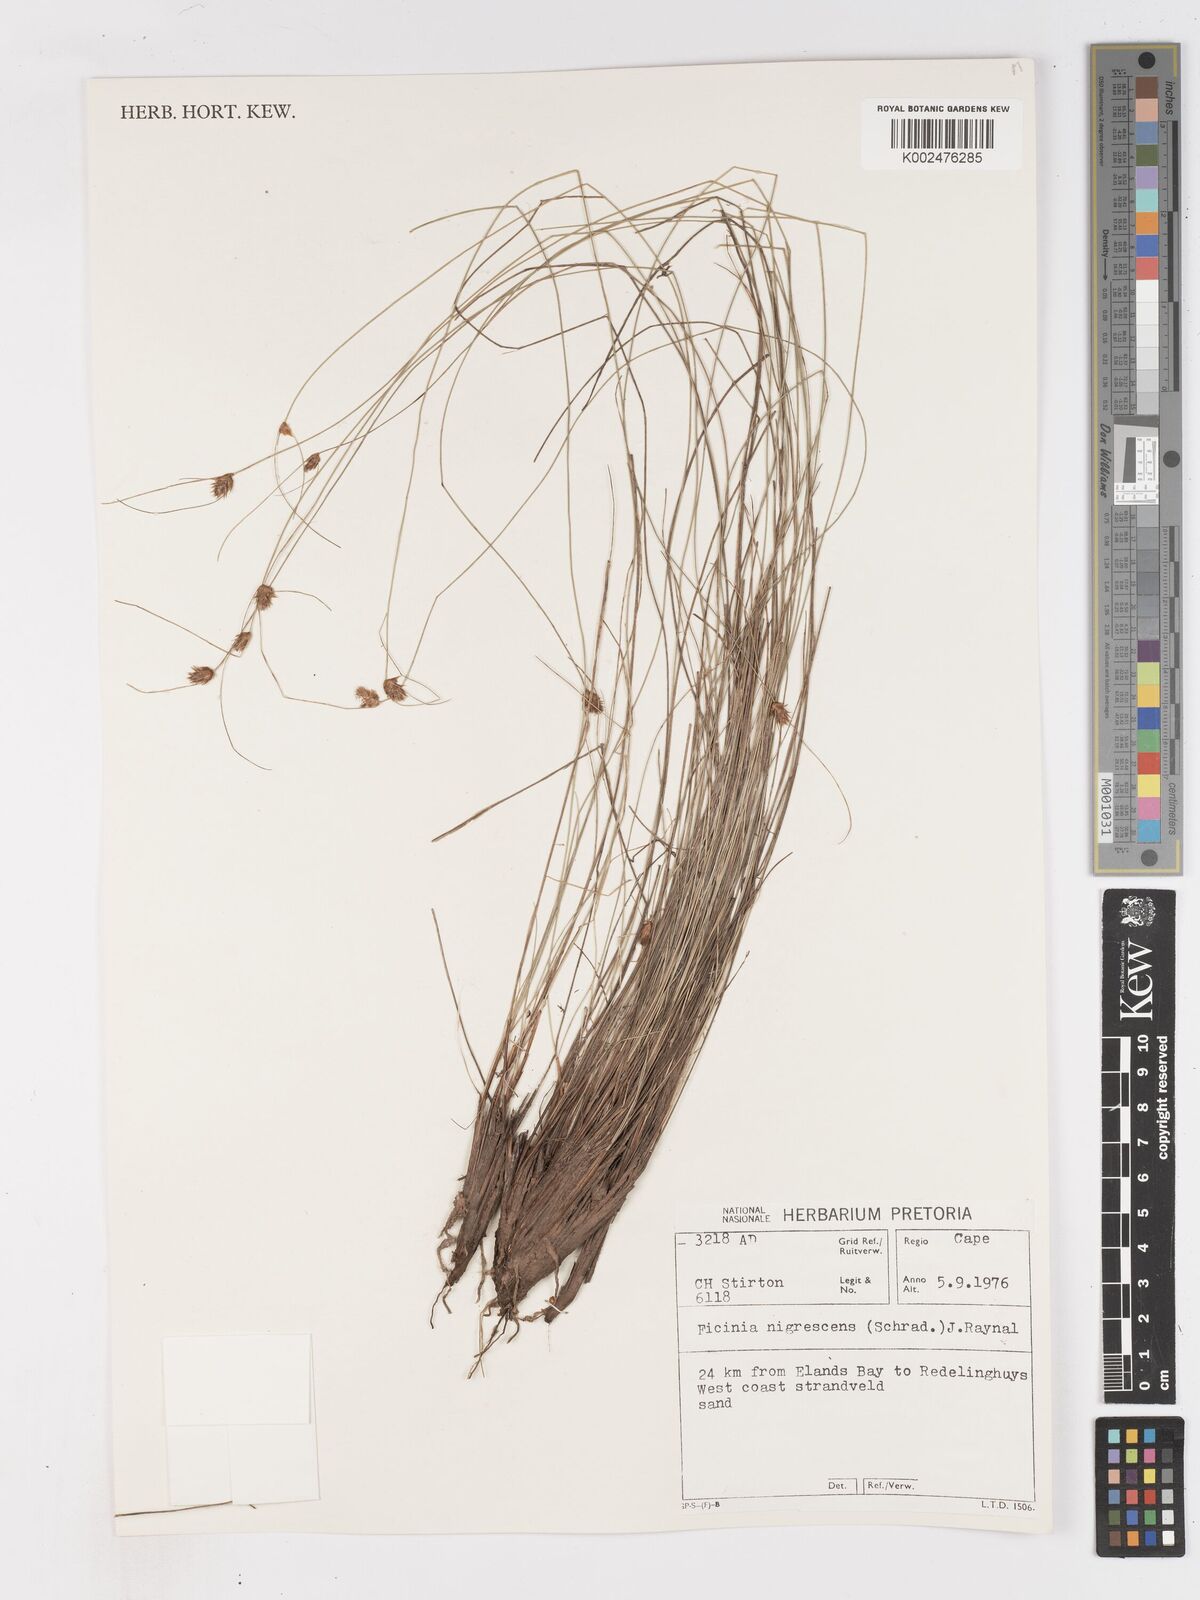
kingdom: Plantae
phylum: Tracheophyta
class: Liliopsida
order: Poales
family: Cyperaceae
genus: Ficinia
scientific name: Ficinia nigrescens
